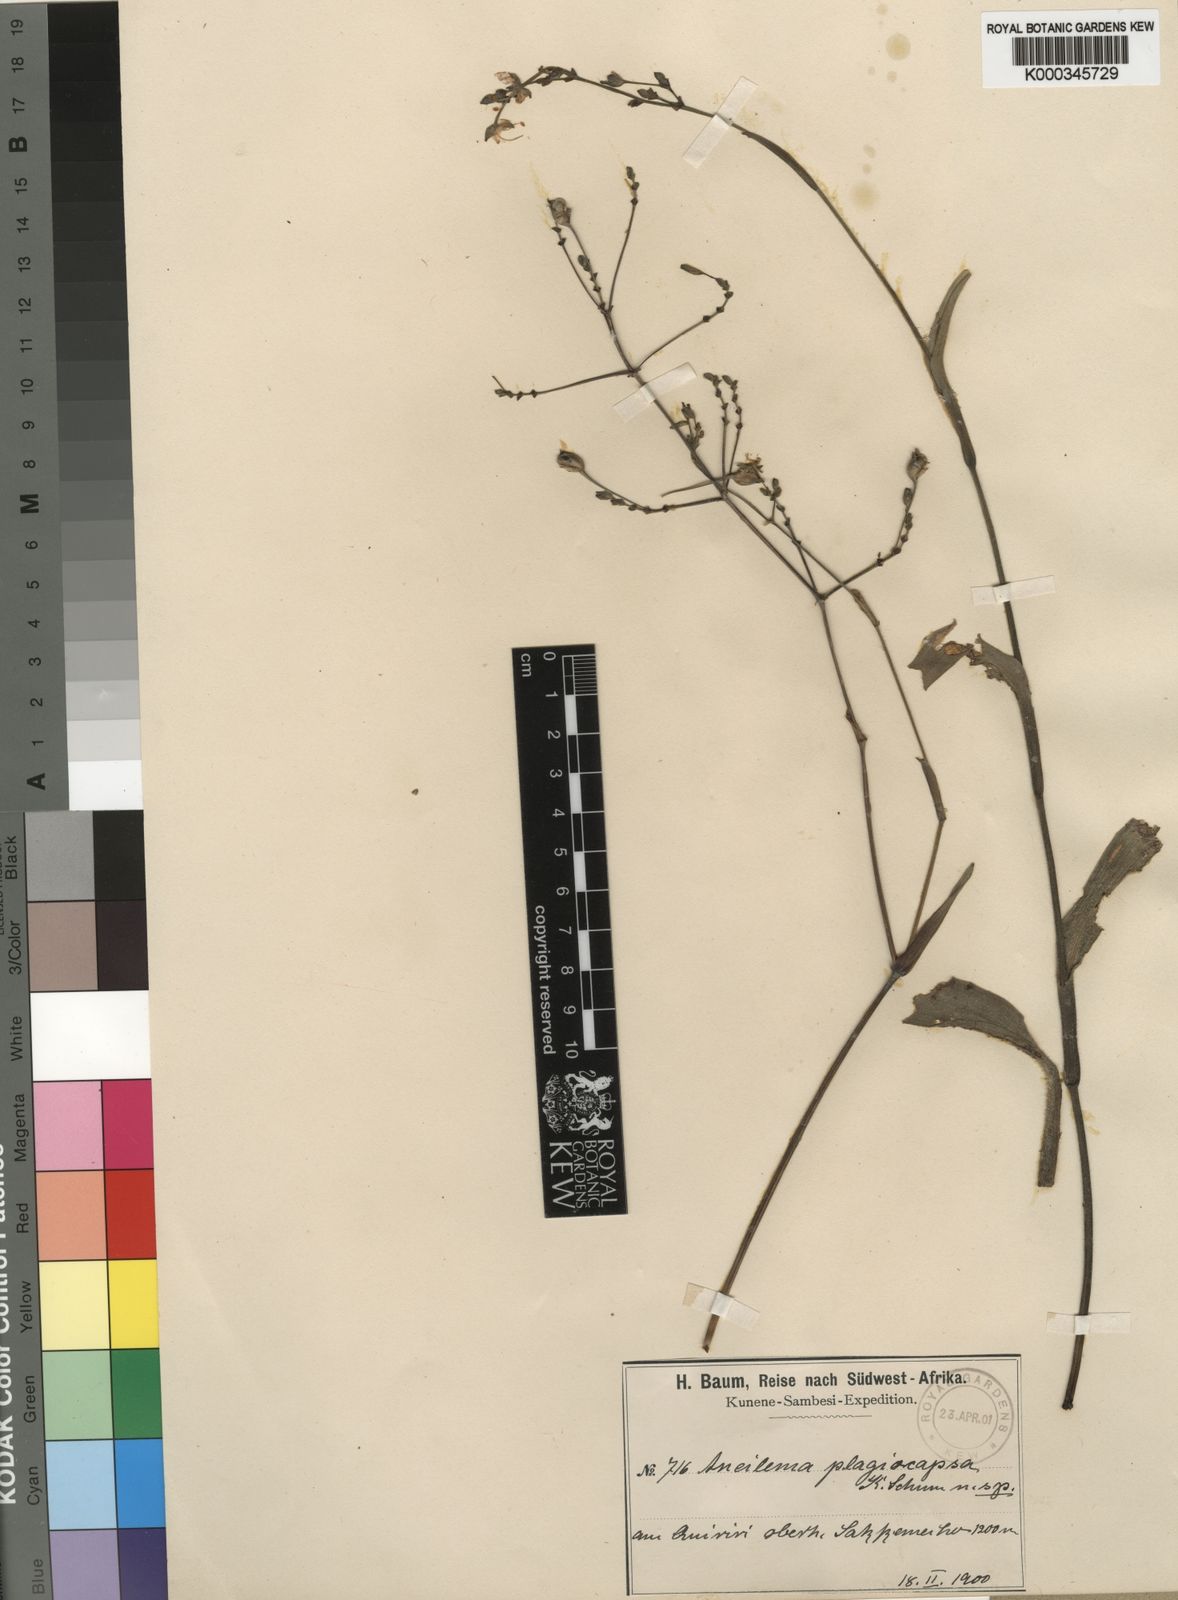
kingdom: Plantae
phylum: Tracheophyta
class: Liliopsida
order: Commelinales
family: Commelinaceae
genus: Aneilema
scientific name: Aneilema plagiocapsa
